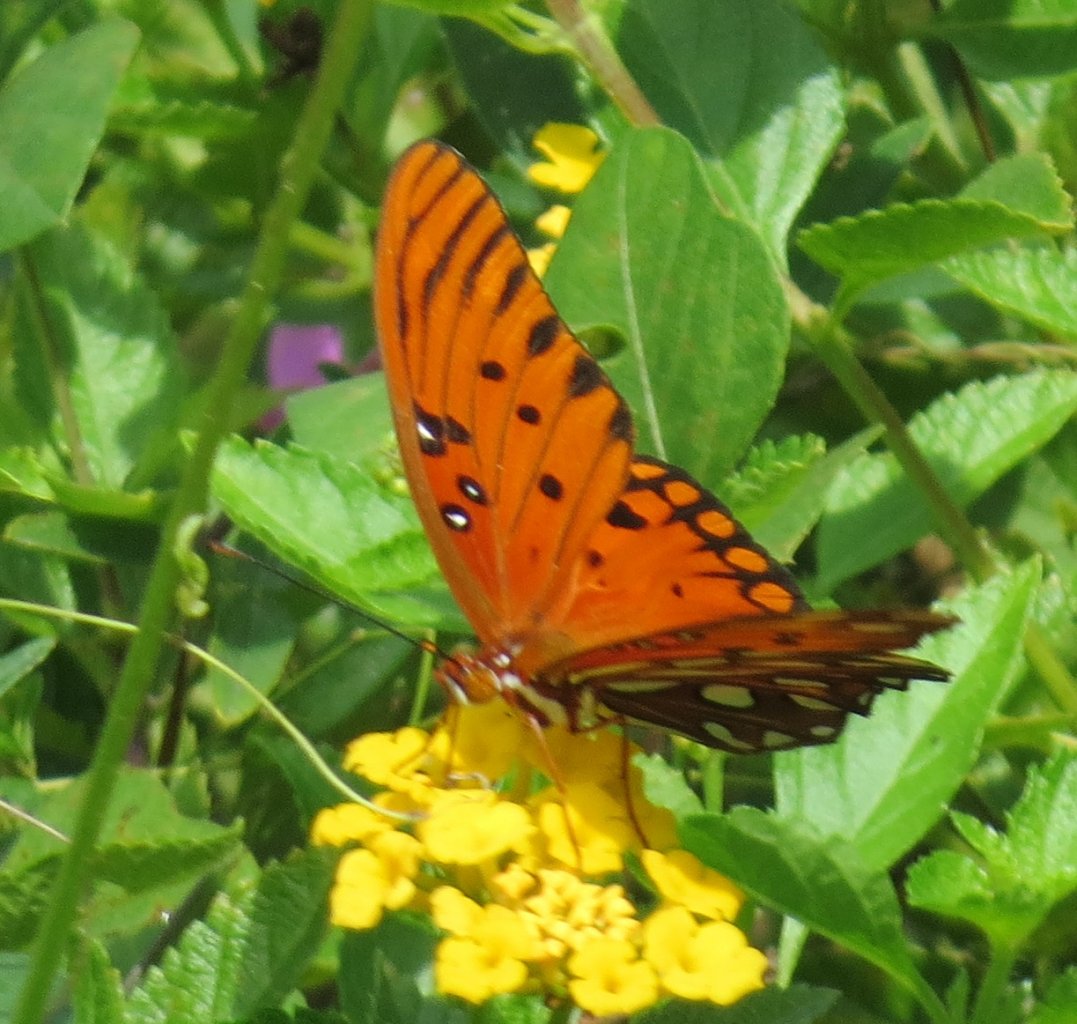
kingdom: Animalia
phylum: Arthropoda
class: Insecta
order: Lepidoptera
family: Nymphalidae
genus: Dione
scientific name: Dione vanillae
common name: Gulf Fritillary
